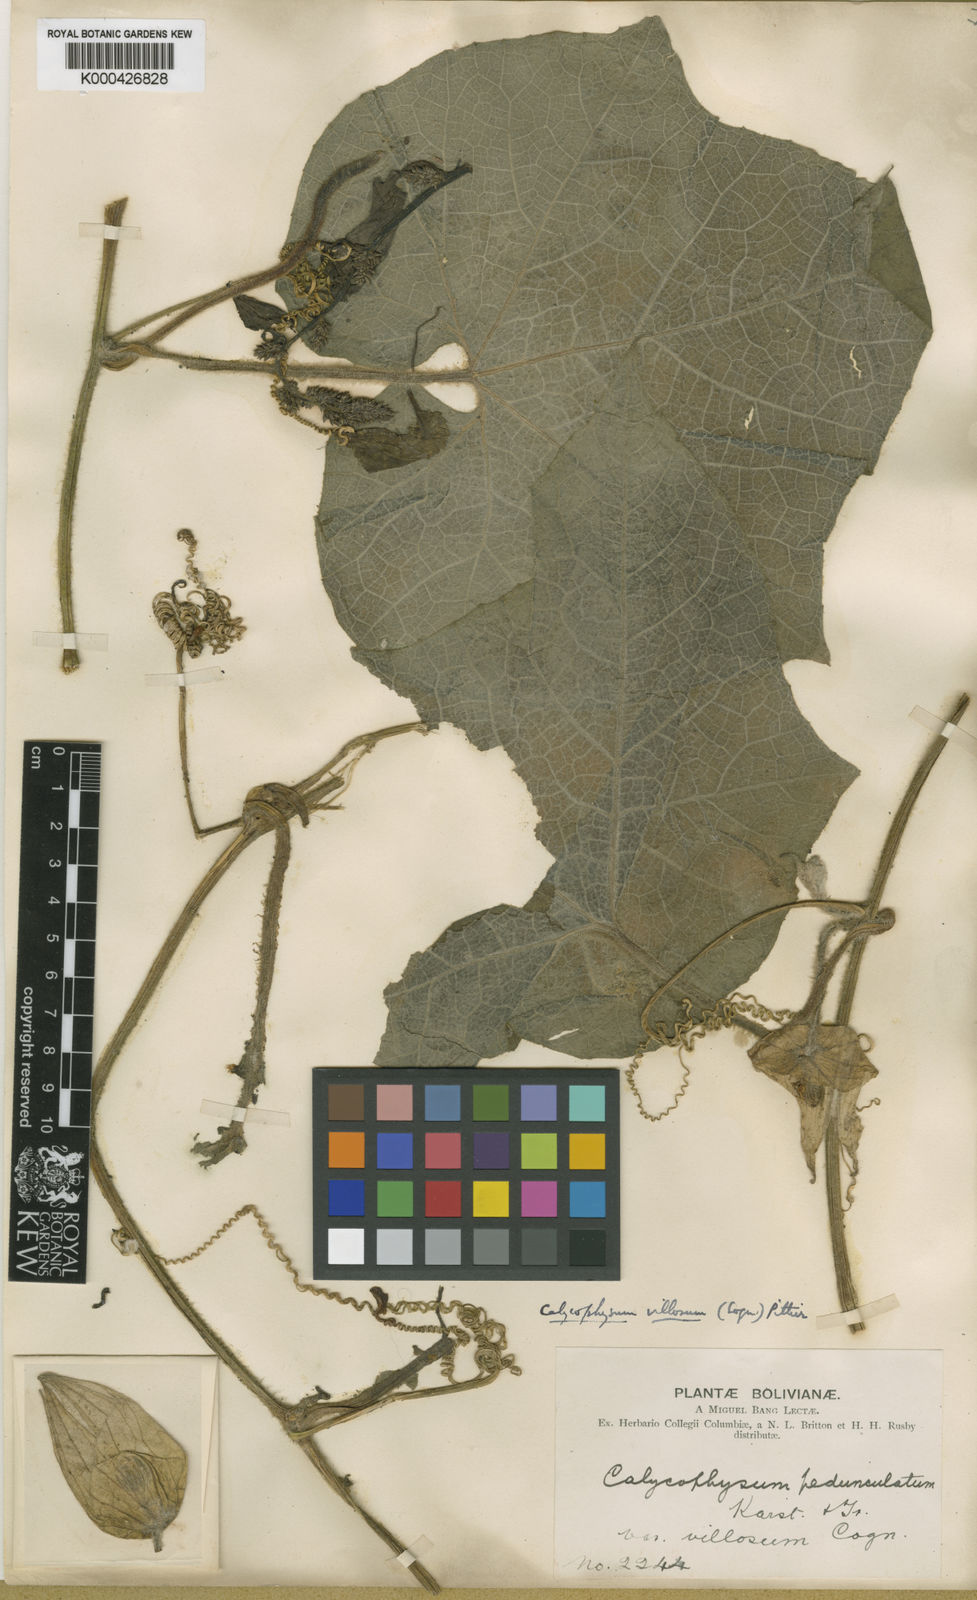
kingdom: Plantae
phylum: Tracheophyta
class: Magnoliopsida
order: Cucurbitales
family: Cucurbitaceae
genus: Calycophysum
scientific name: Calycophysum pedunculatum
